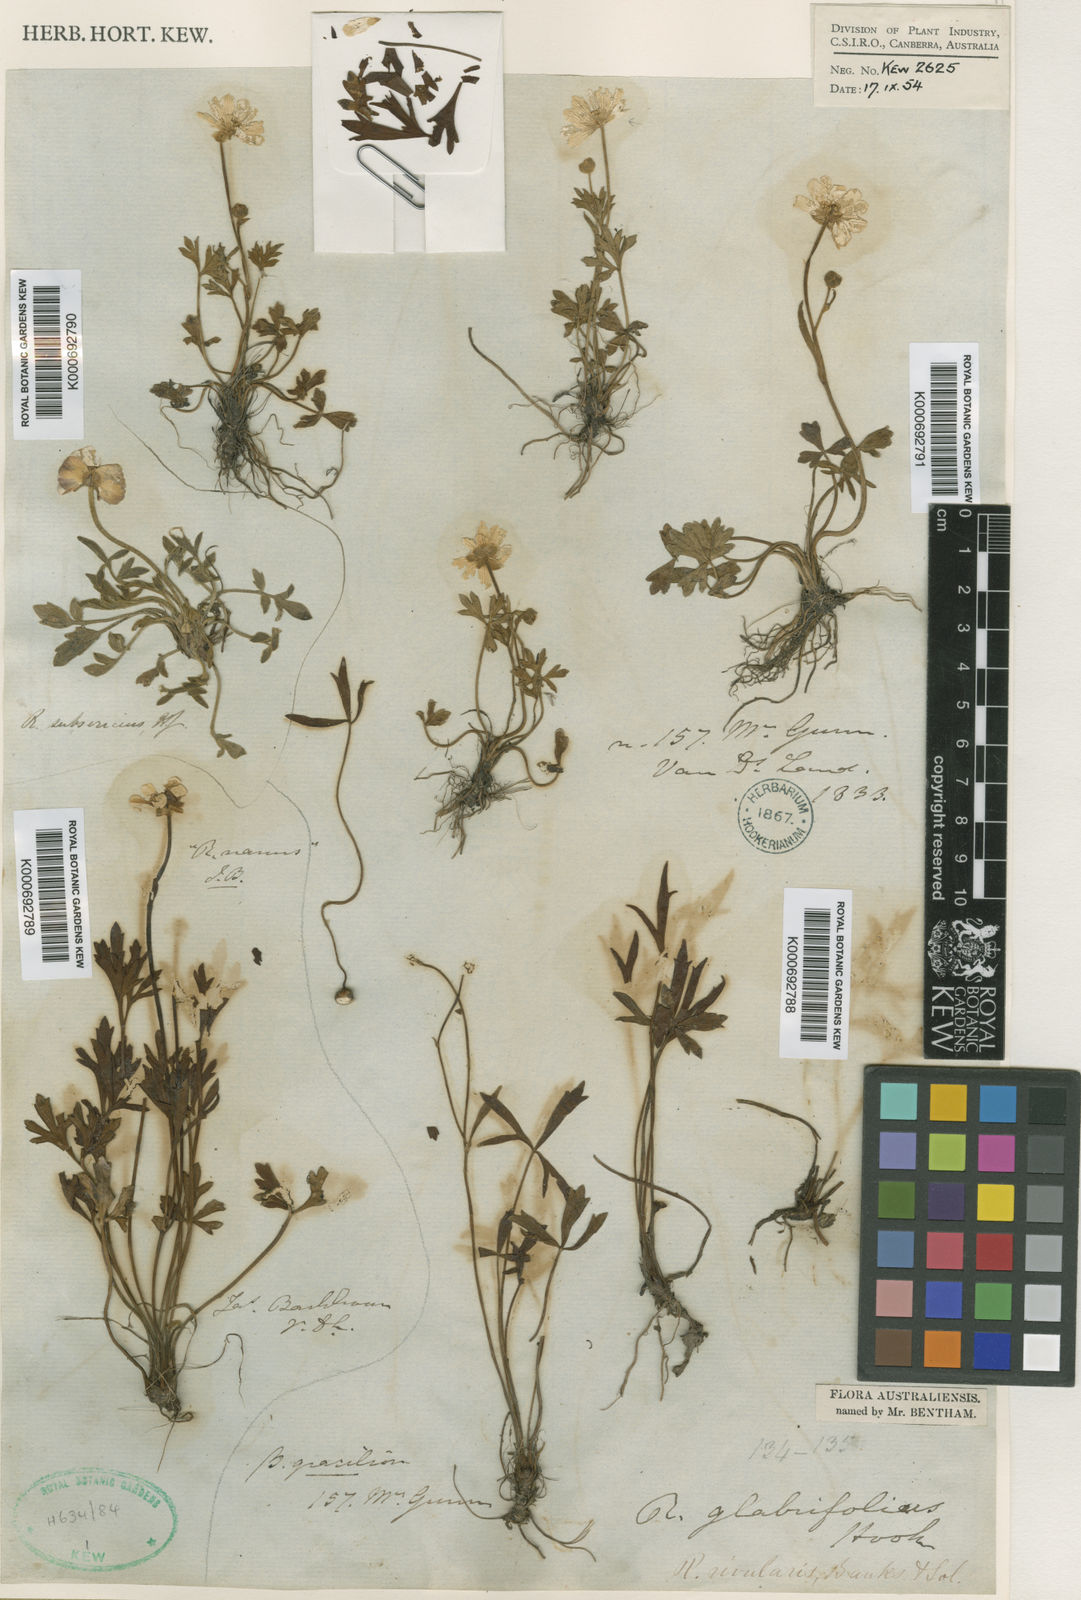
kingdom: Plantae
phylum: Tracheophyta
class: Magnoliopsida
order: Ranunculales
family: Ranunculaceae
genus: Ranunculus
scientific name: Ranunculus glabrifolius
